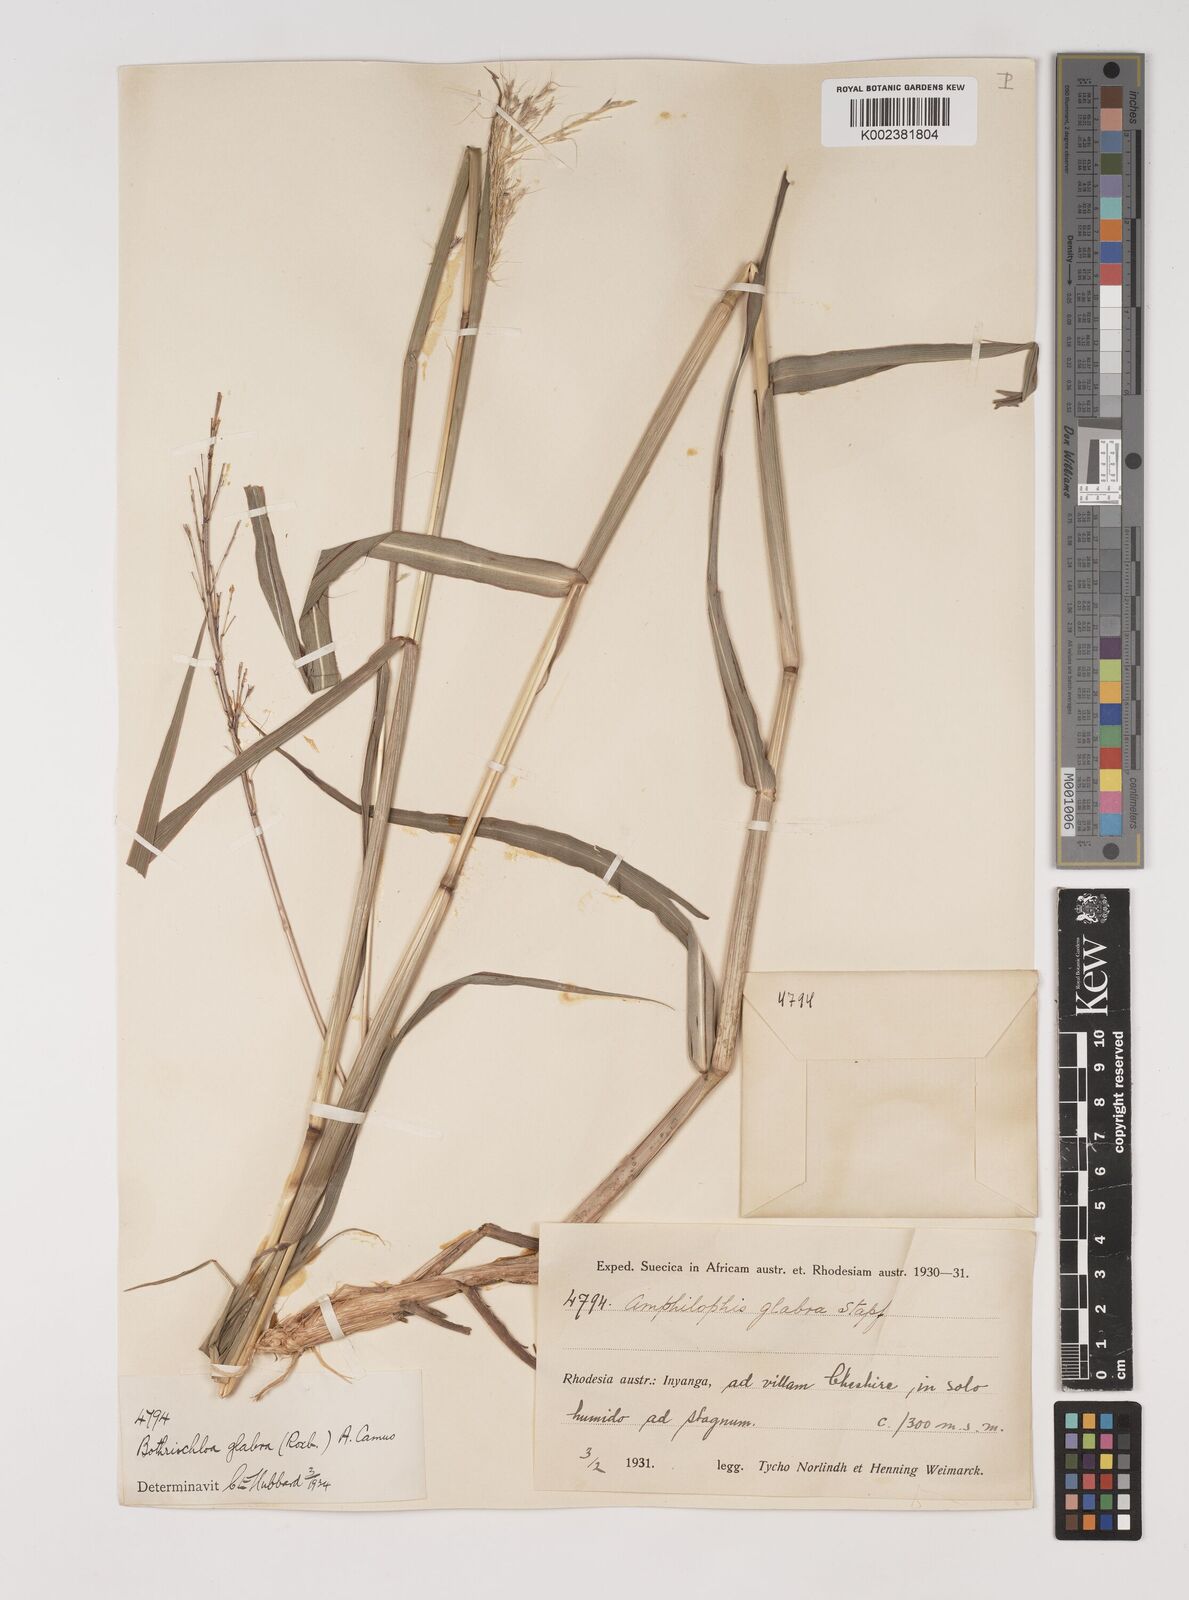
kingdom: Plantae
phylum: Tracheophyta
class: Liliopsida
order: Poales
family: Poaceae
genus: Bothriochloa
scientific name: Bothriochloa bladhii
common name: Caucasian bluestem
